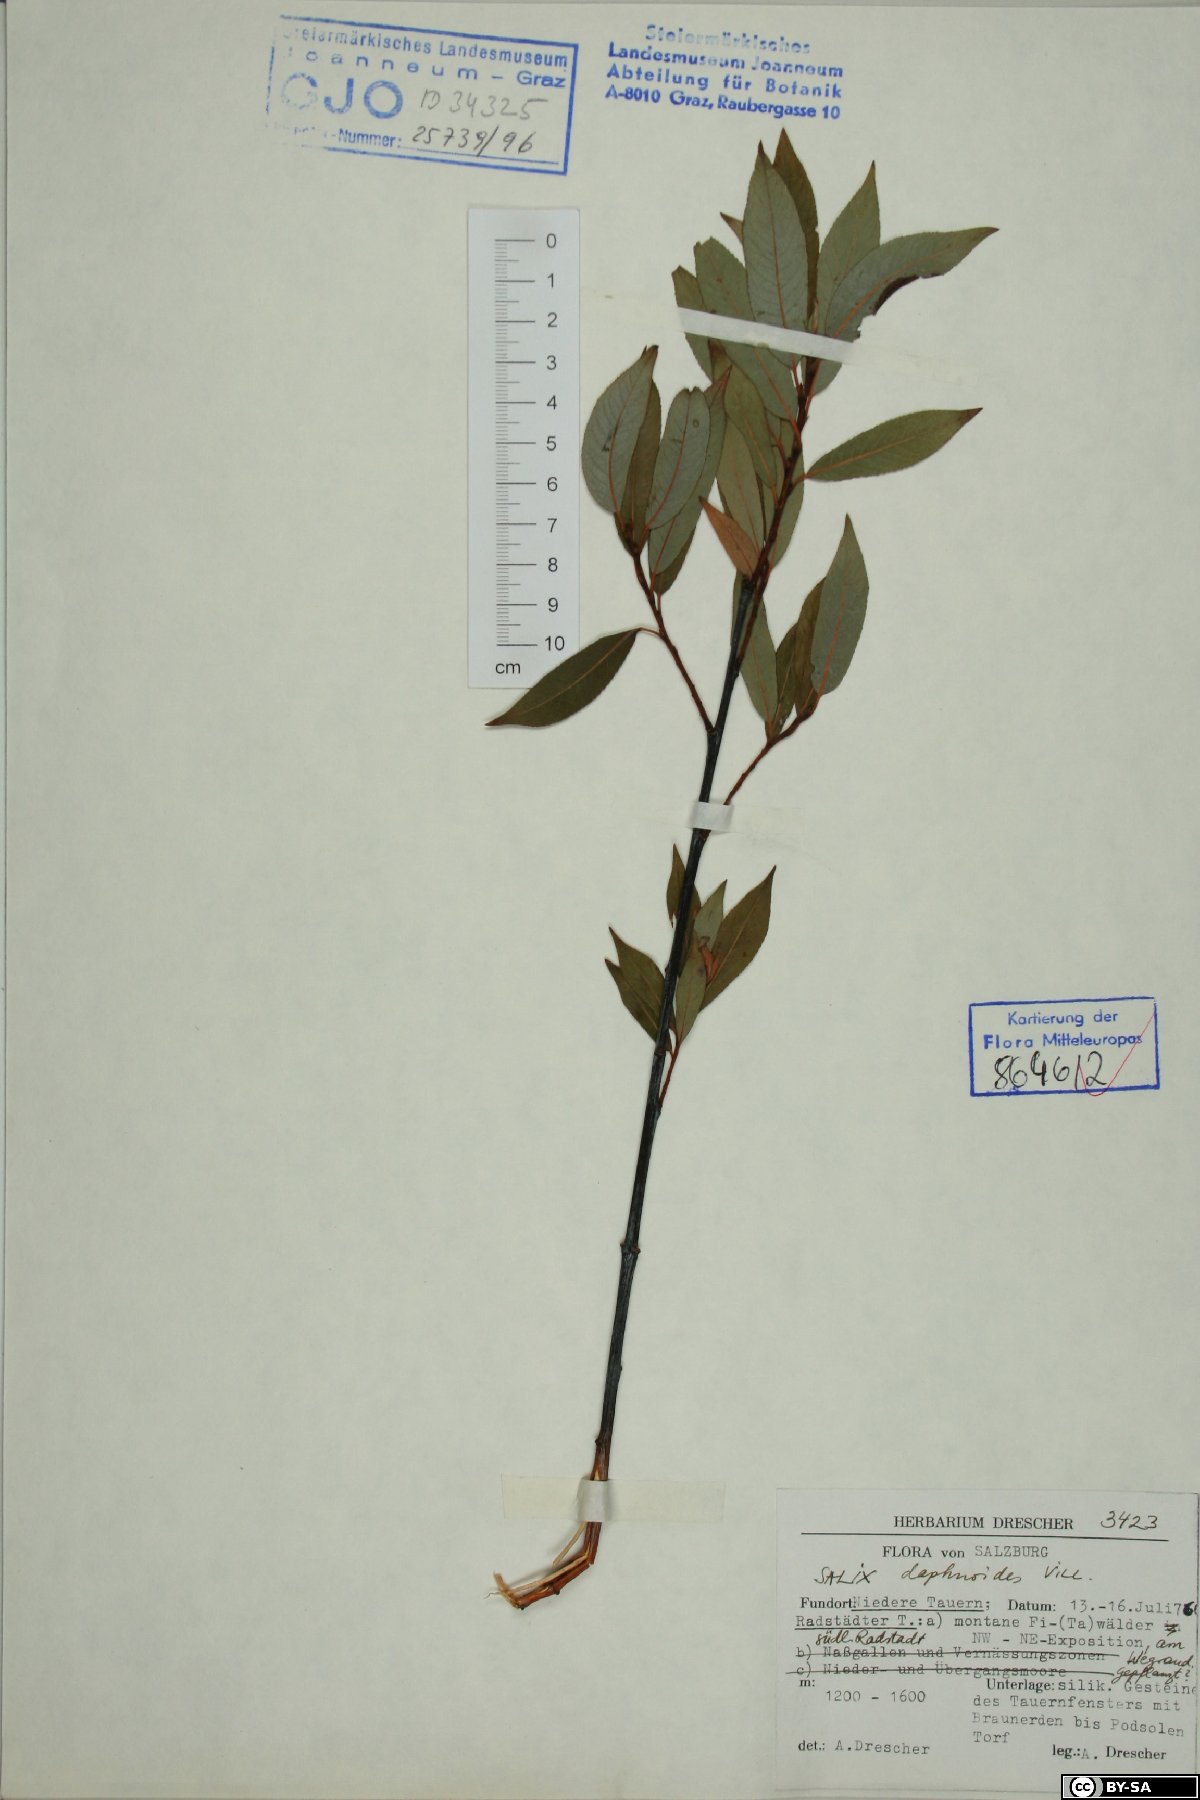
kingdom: Plantae
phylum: Tracheophyta
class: Magnoliopsida
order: Malpighiales
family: Salicaceae
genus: Salix
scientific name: Salix daphnoides
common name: European violet-willow
